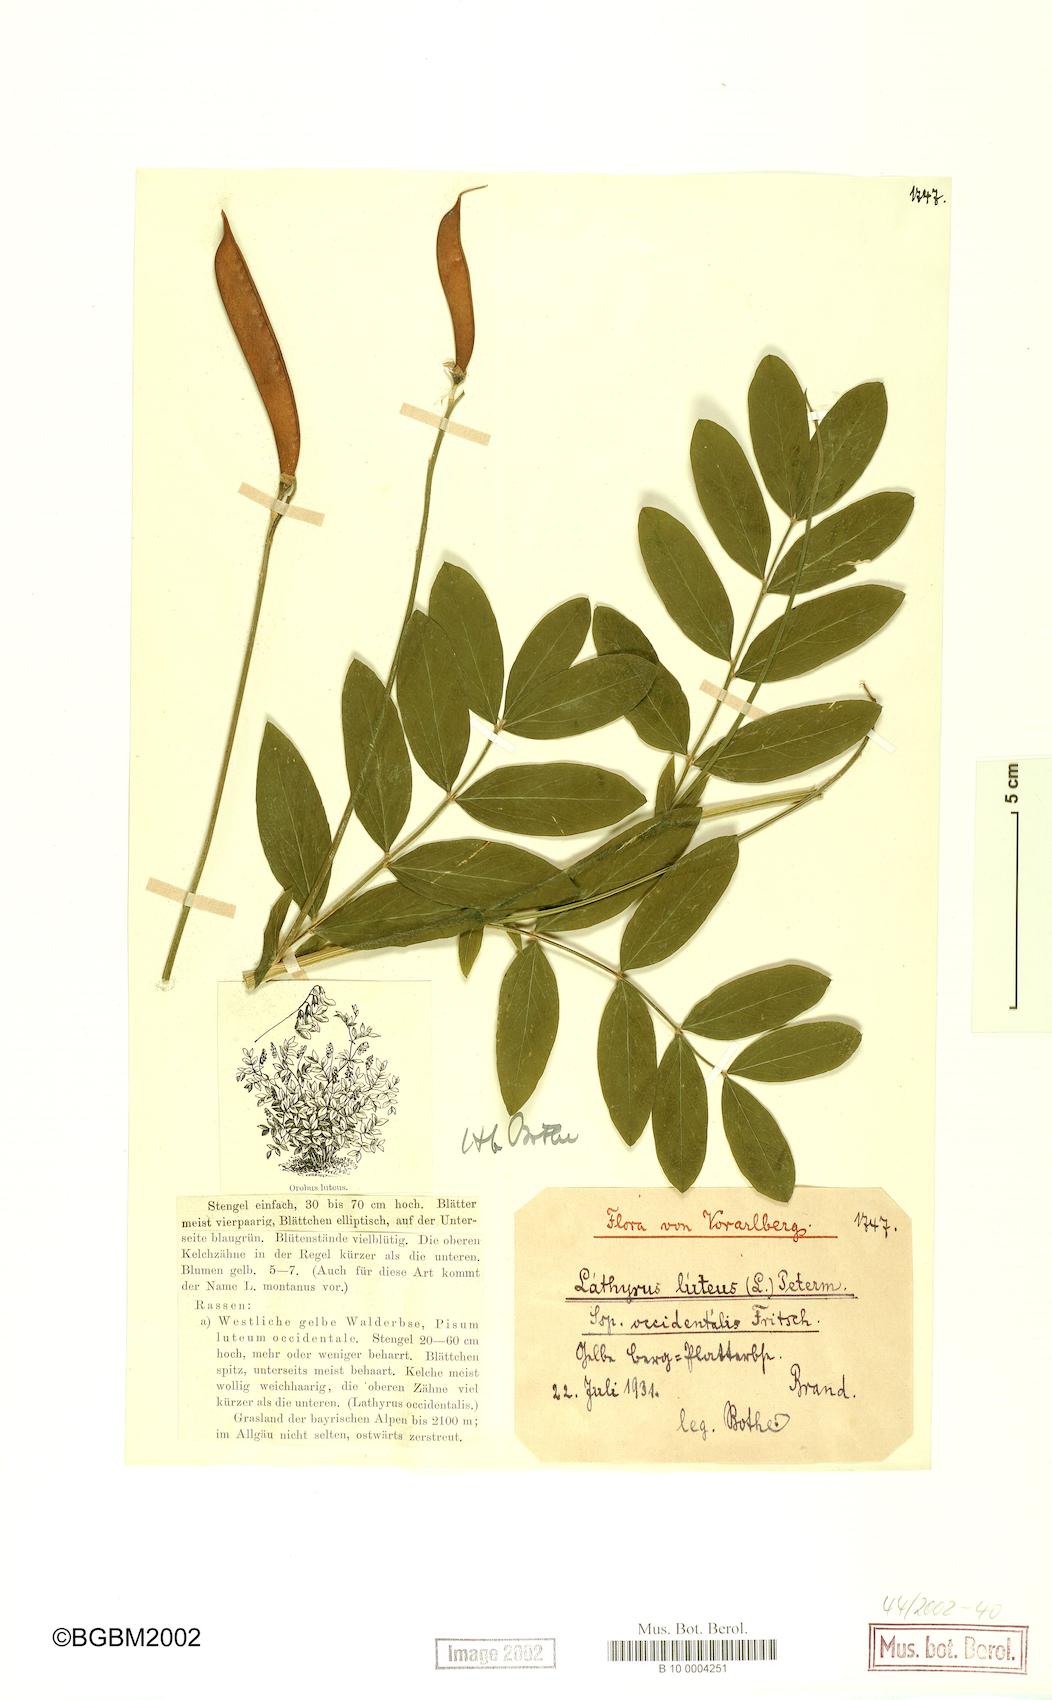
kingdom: Plantae
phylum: Tracheophyta
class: Magnoliopsida
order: Fabales
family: Fabaceae
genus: Lathyrus
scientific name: Lathyrus gmelinii
